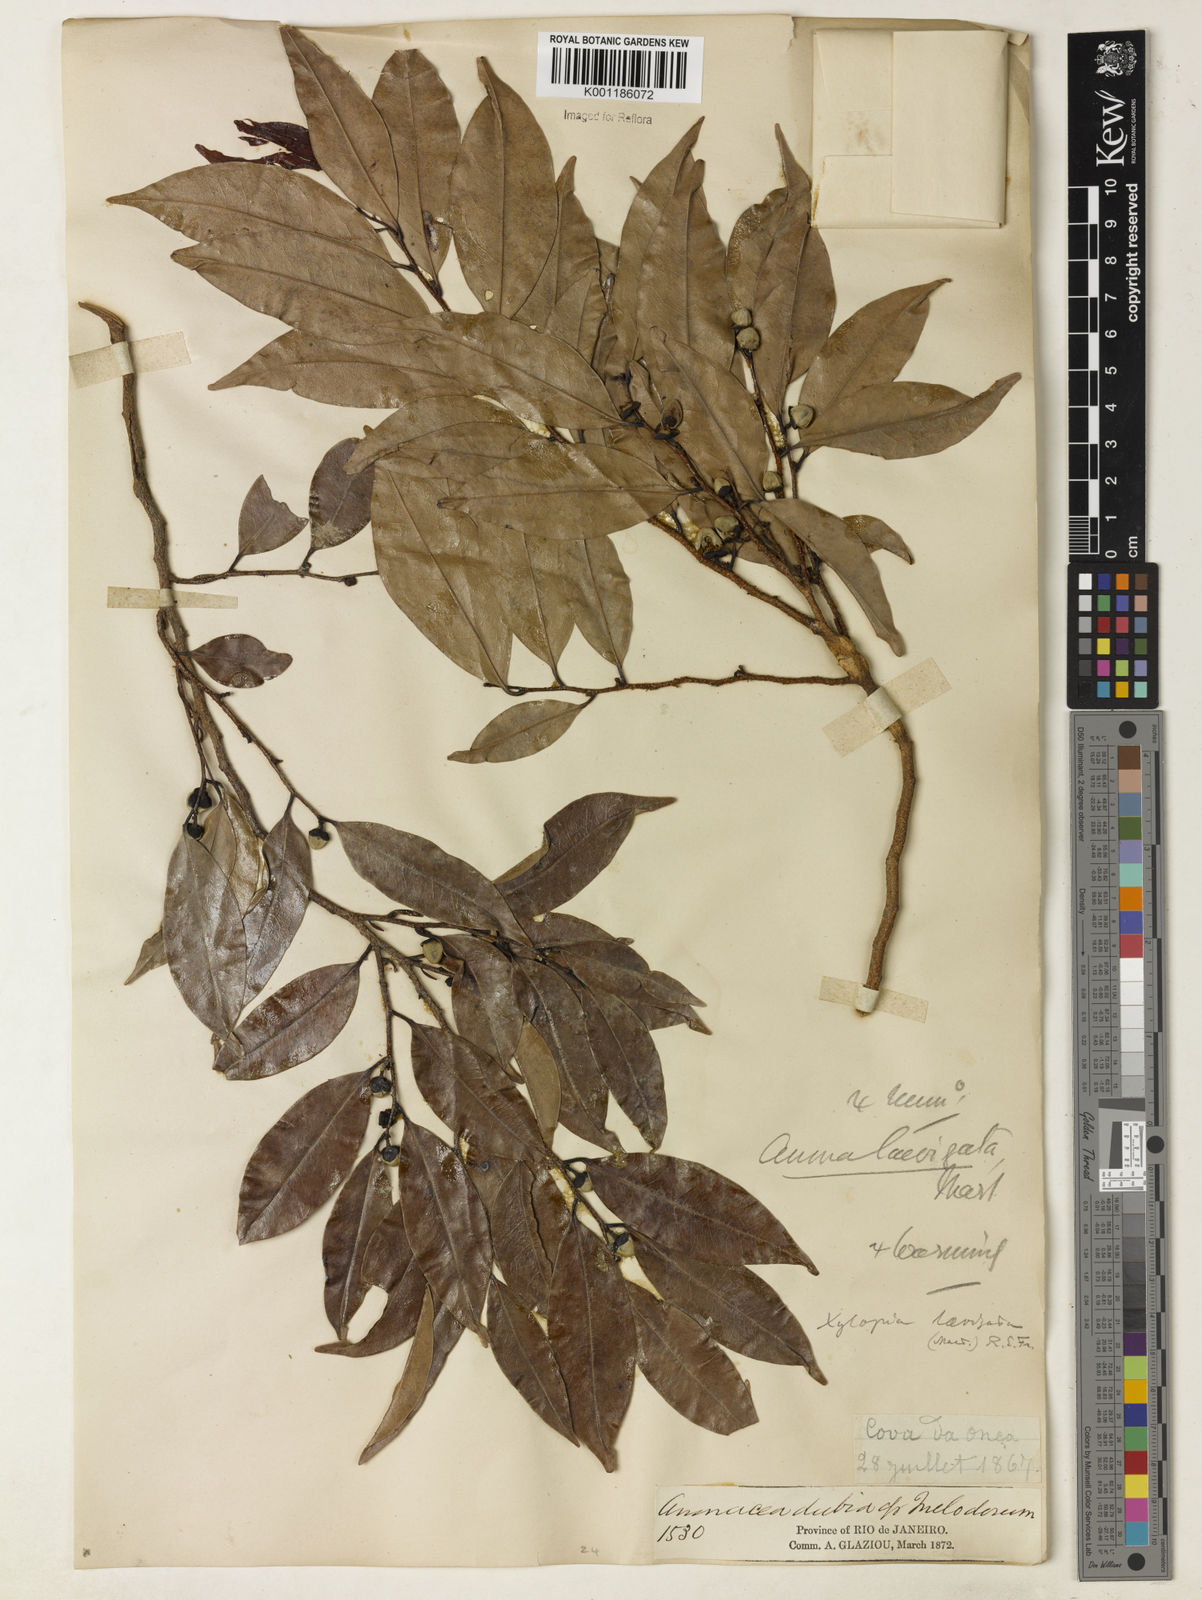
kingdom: Plantae
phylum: Tracheophyta
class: Magnoliopsida
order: Magnoliales
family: Annonaceae
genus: Xylopia
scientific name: Xylopia laevigata
